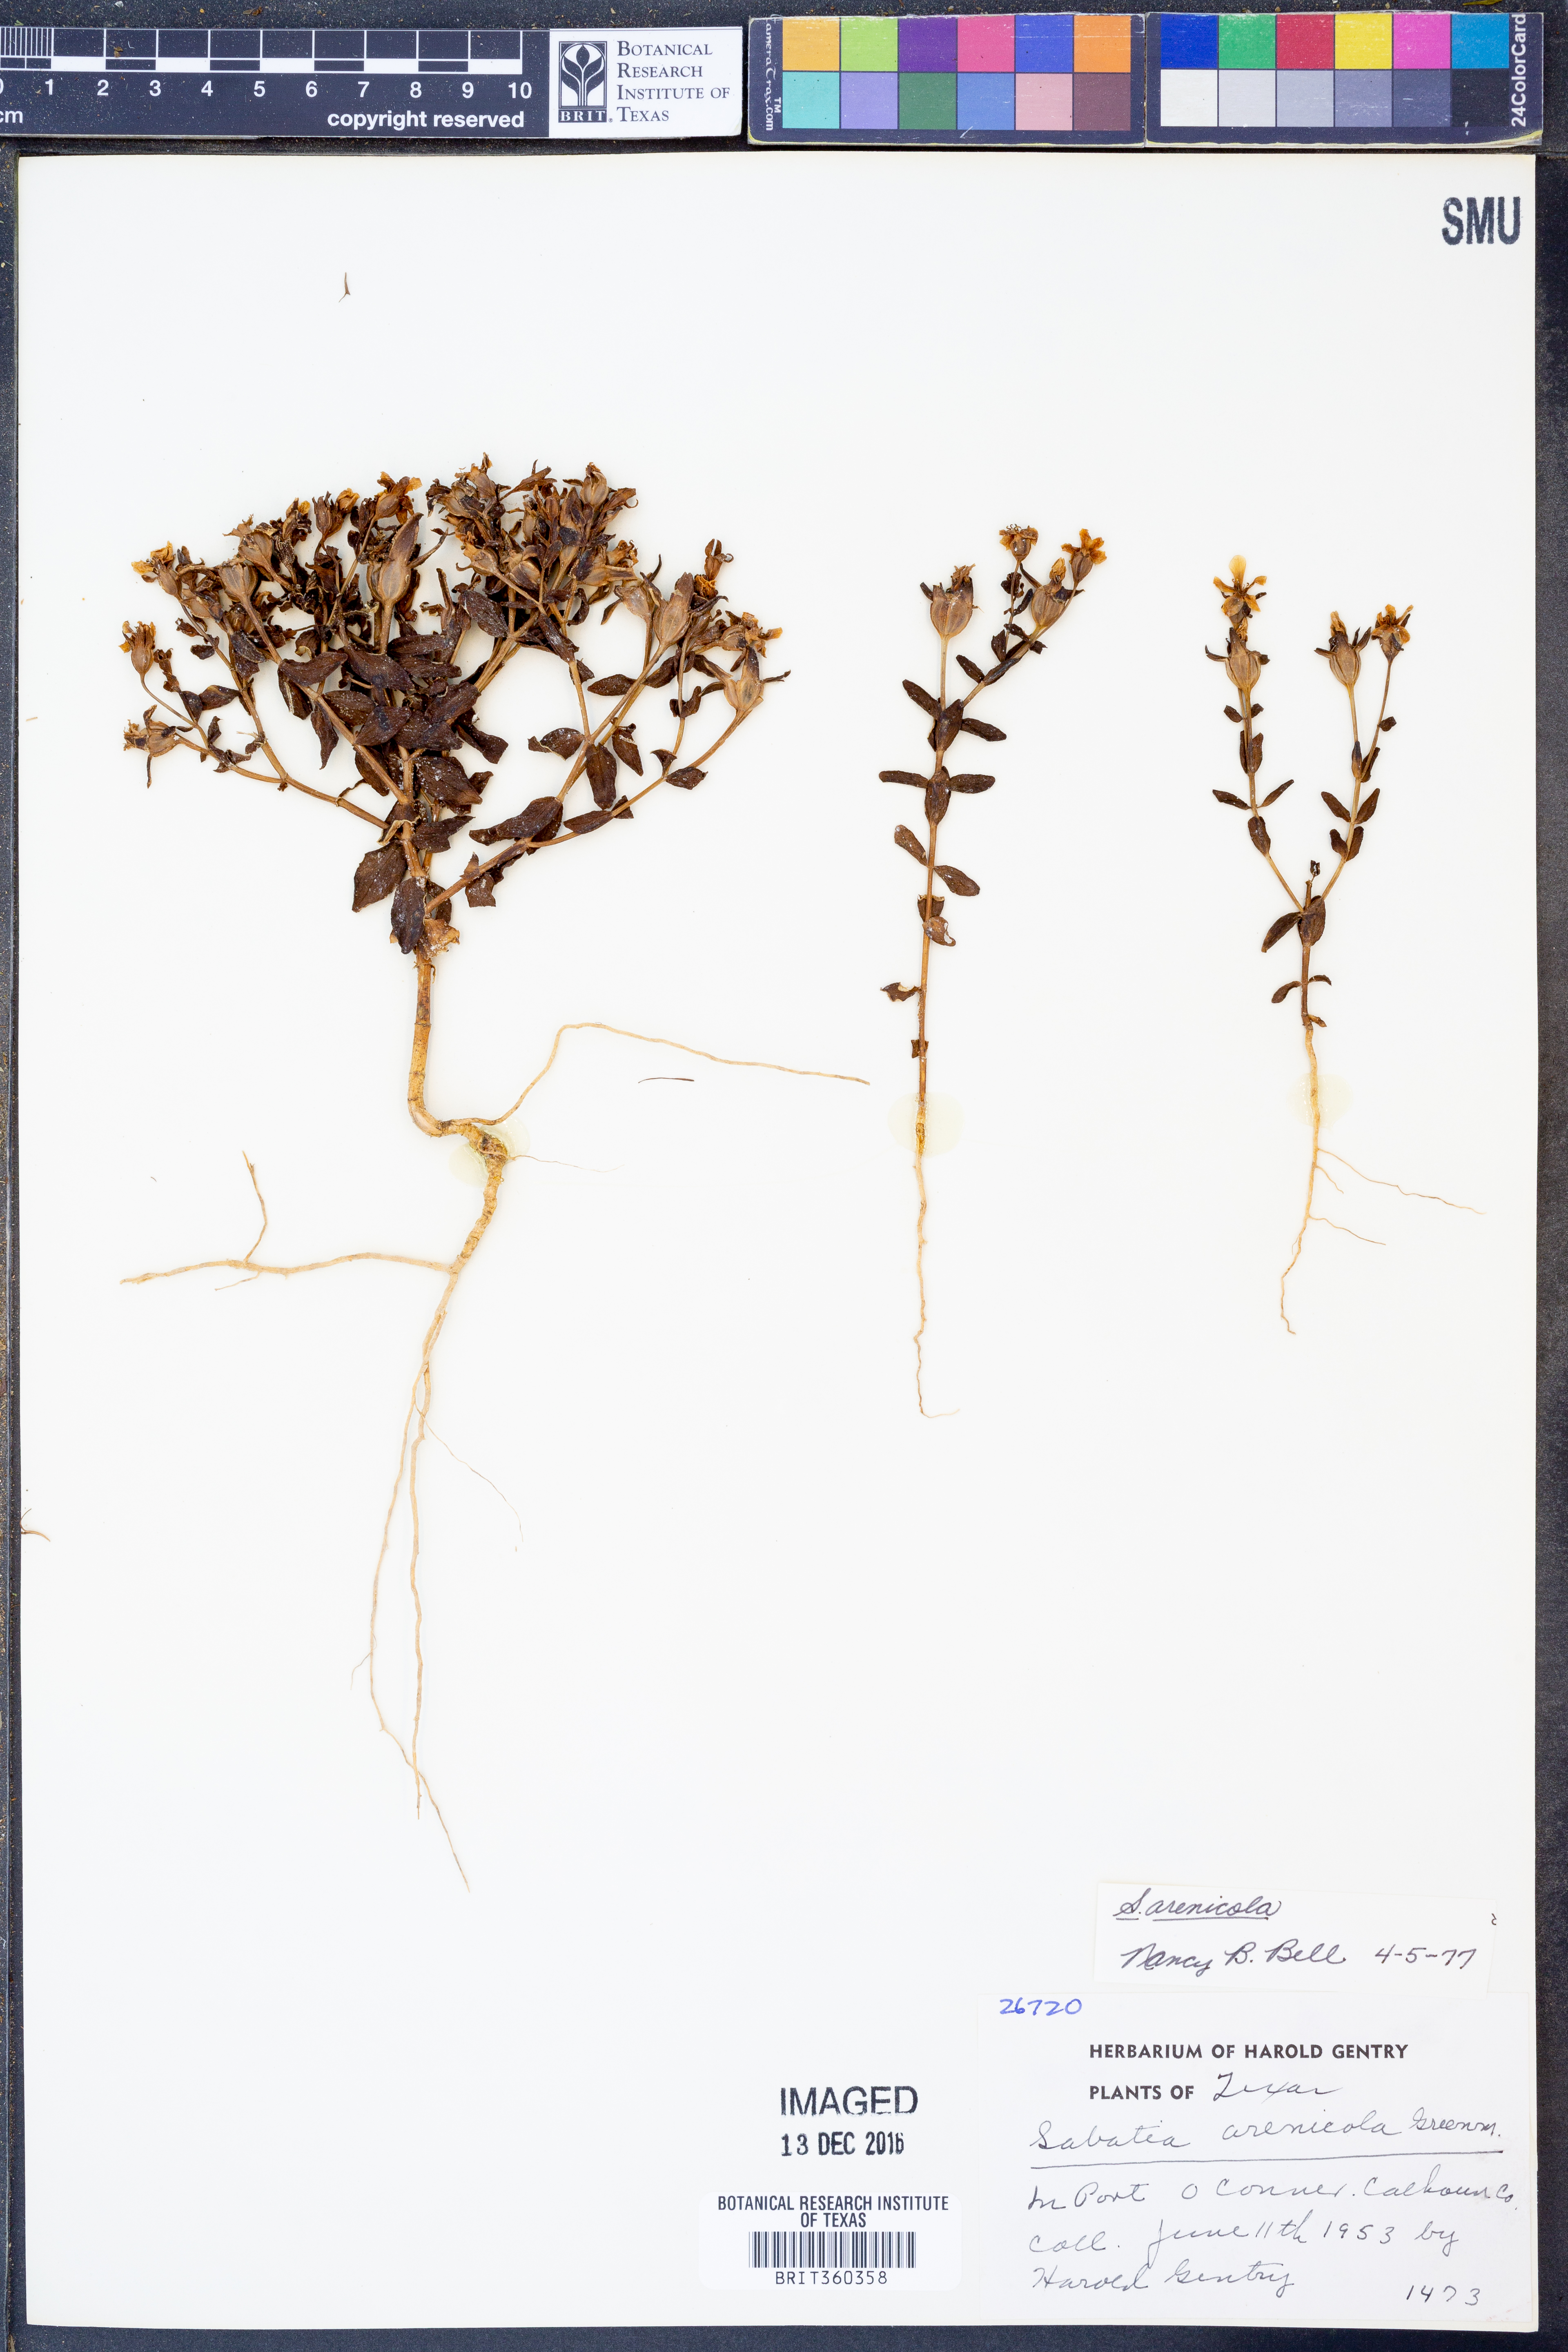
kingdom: Plantae
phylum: Tracheophyta
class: Magnoliopsida
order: Gentianales
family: Gentianaceae
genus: Sabatia
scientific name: Sabatia arenicola
